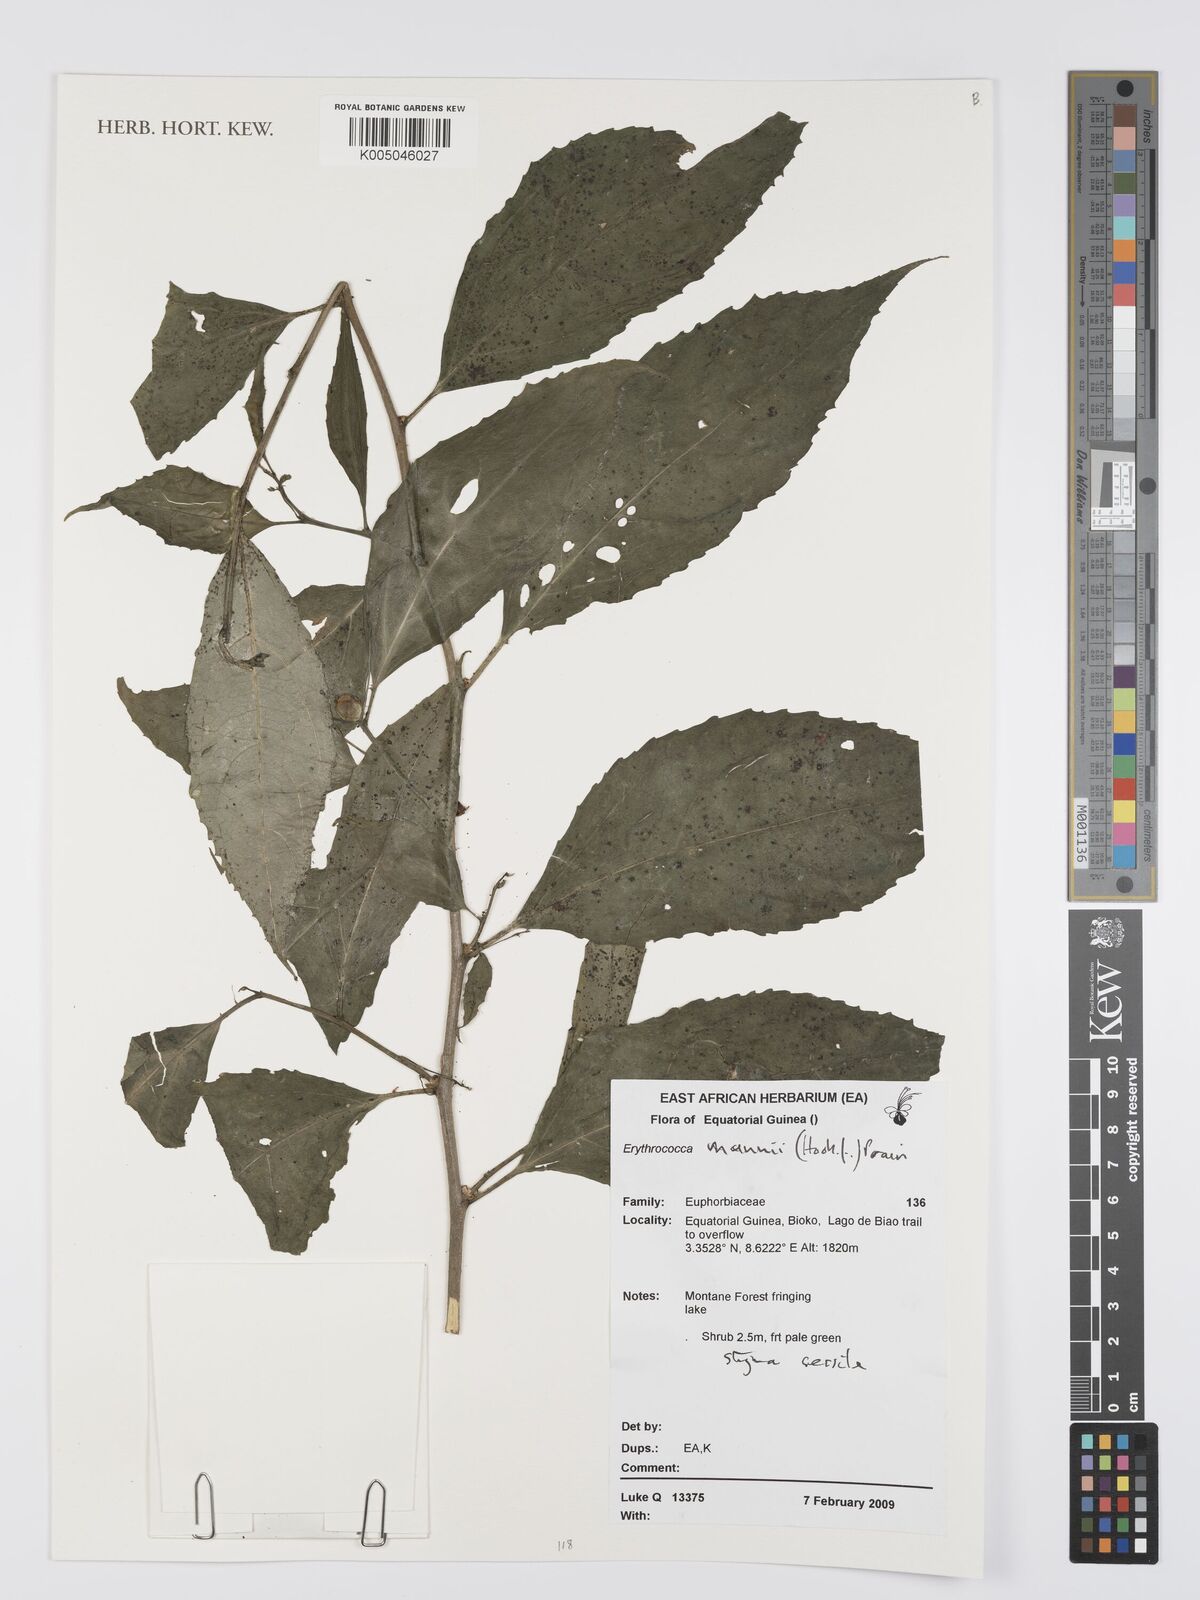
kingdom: Plantae
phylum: Tracheophyta
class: Magnoliopsida
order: Malpighiales
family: Euphorbiaceae
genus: Erythrococca
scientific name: Erythrococca mannii
